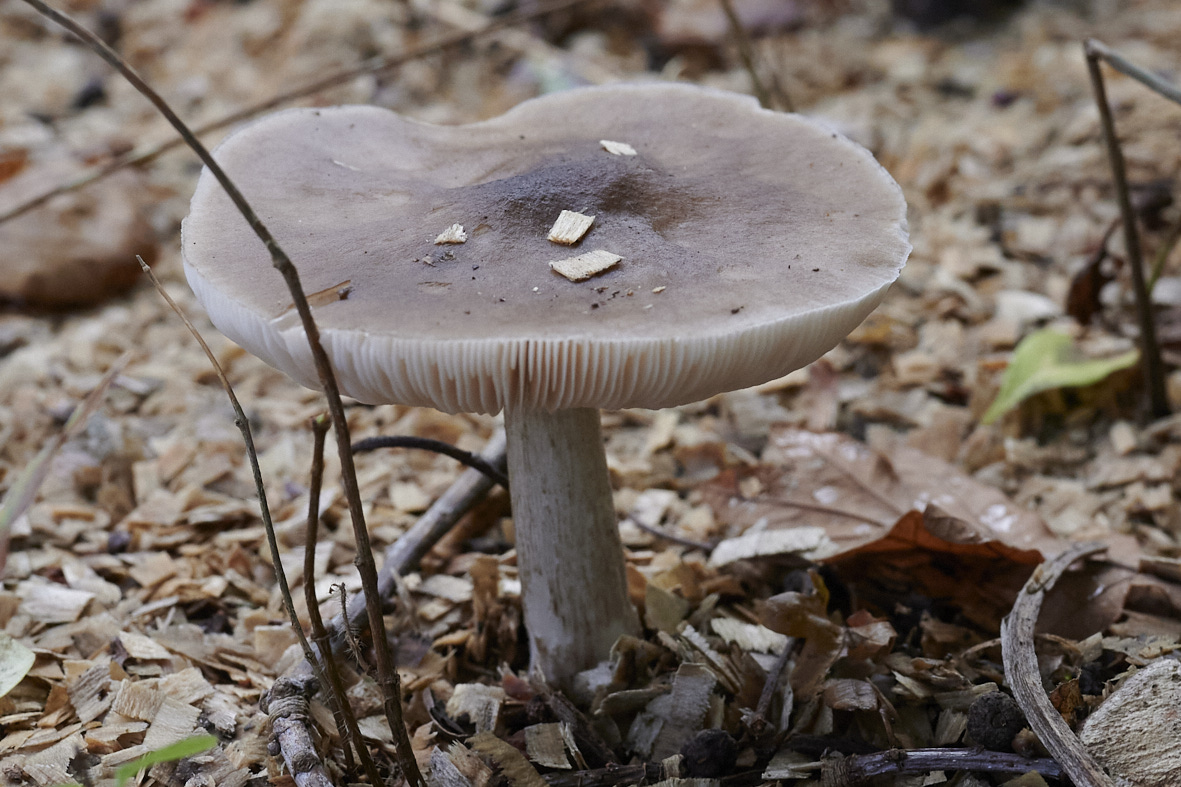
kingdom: Fungi
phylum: Basidiomycota
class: Agaricomycetes
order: Agaricales
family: Pluteaceae
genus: Pluteus
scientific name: Pluteus cervinus
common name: sodfarvet skærmhat
